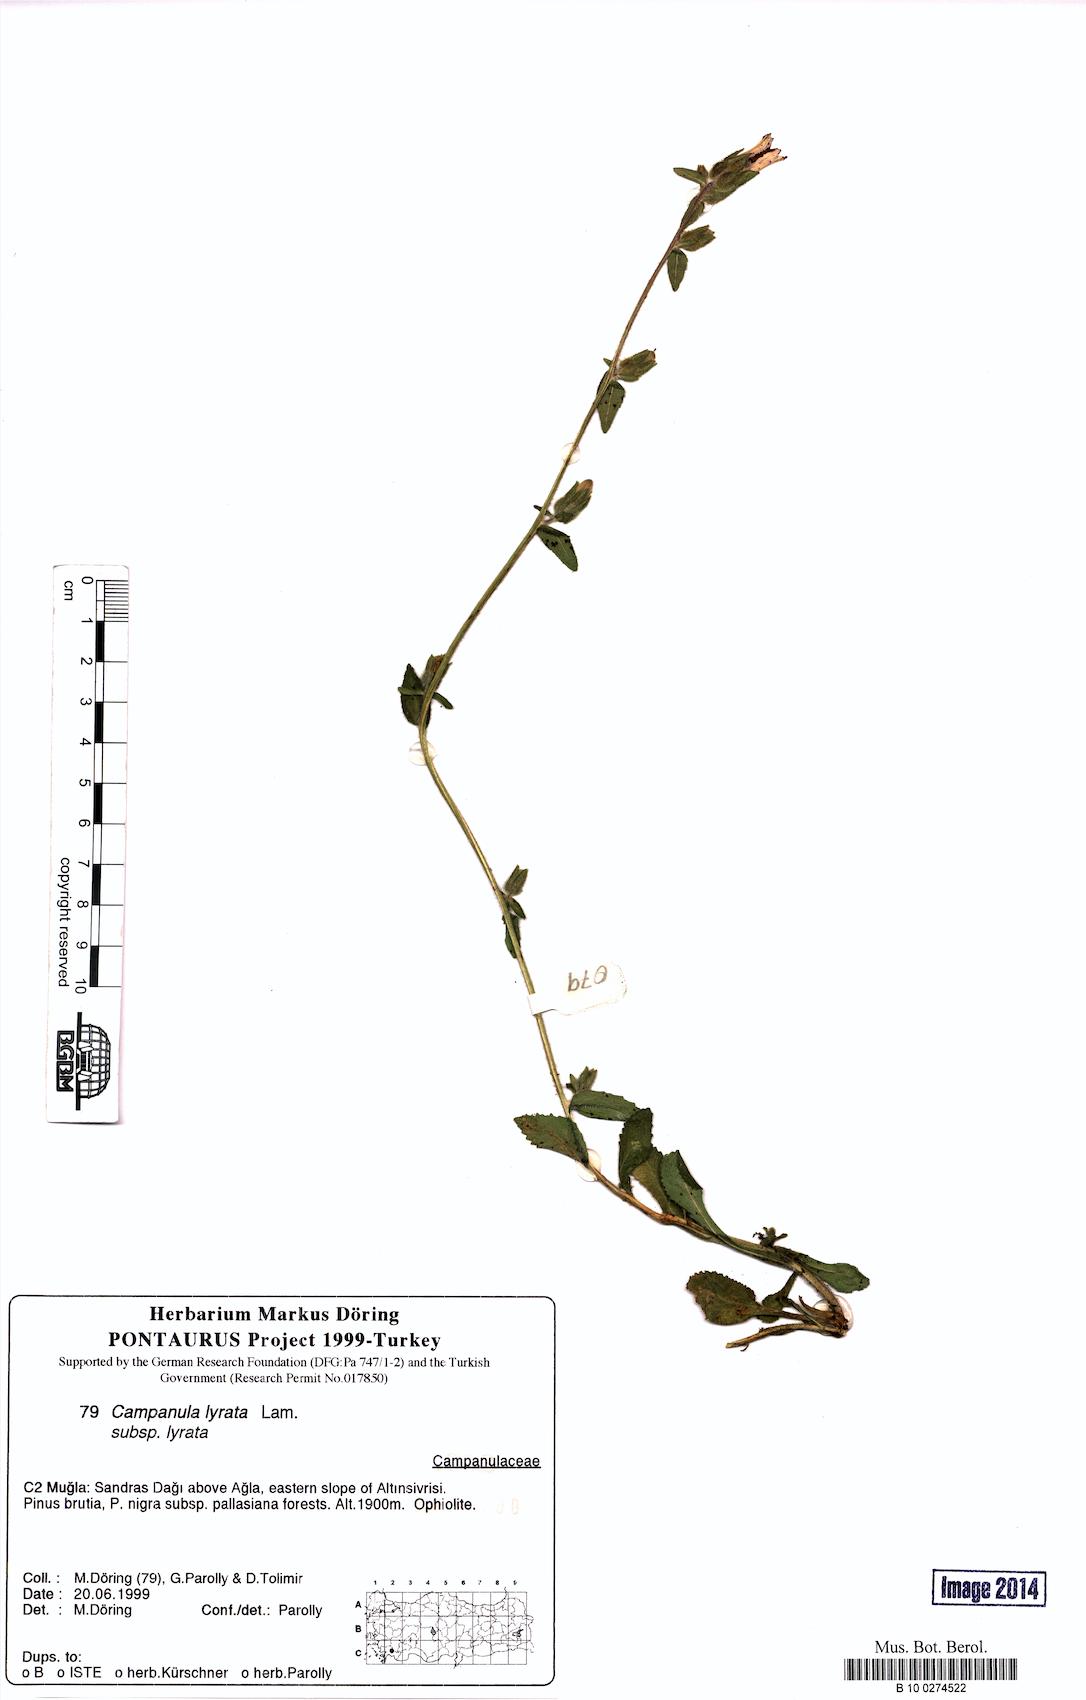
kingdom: Plantae
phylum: Tracheophyta
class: Magnoliopsida
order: Asterales
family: Campanulaceae
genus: Campanula
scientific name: Campanula lyrata
